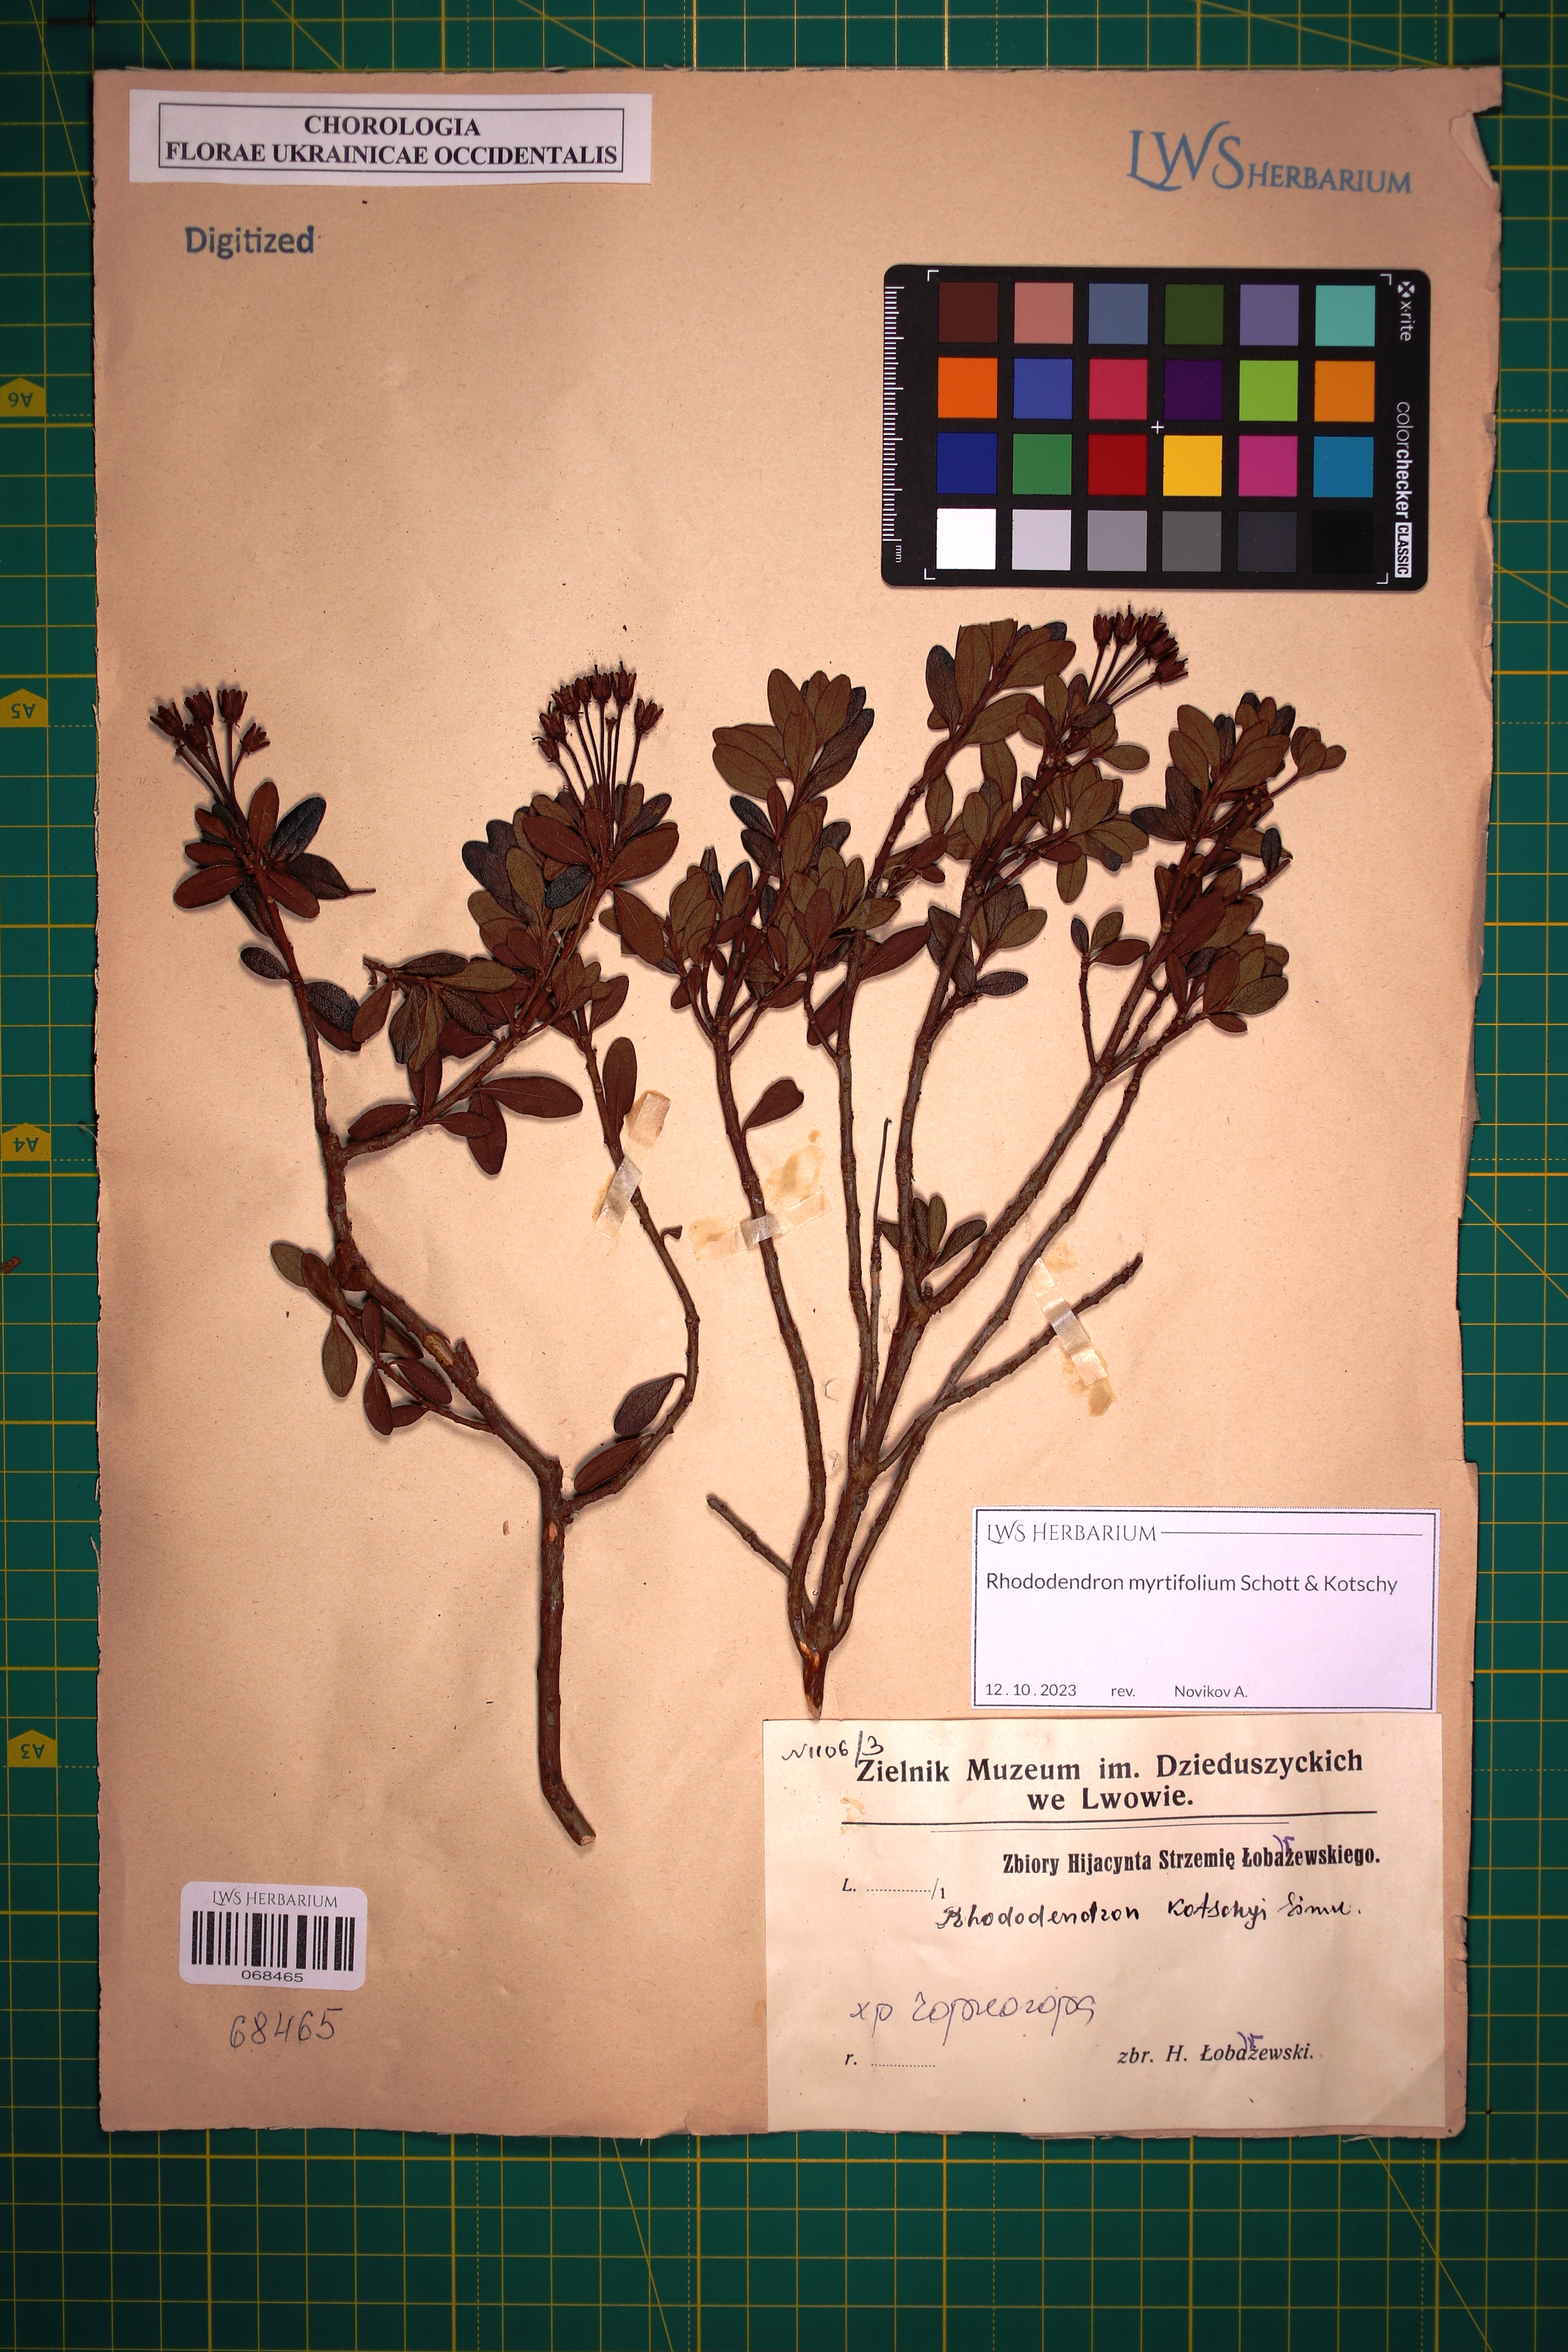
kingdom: Plantae
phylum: Tracheophyta
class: Magnoliopsida
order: Ericales
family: Ericaceae
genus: Rhododendron
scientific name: Rhododendron kotschyi
